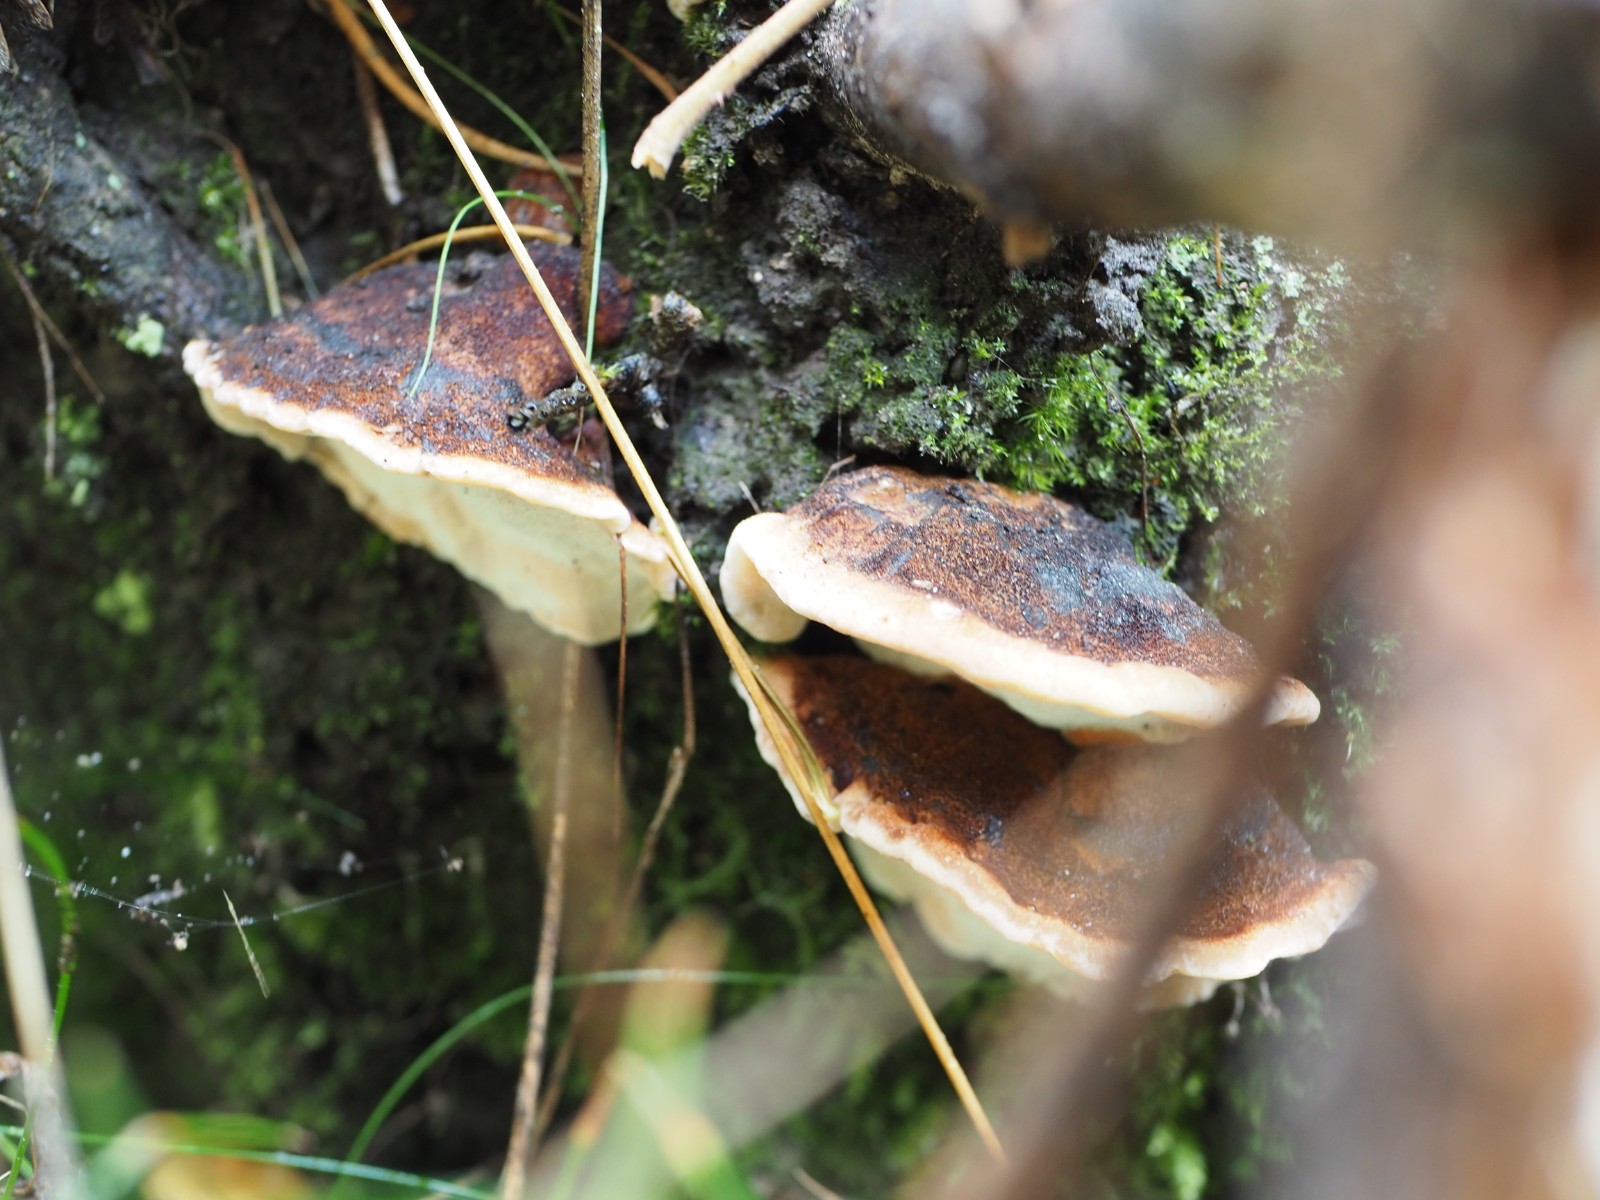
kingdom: Fungi
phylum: Basidiomycota
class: Agaricomycetes
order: Polyporales
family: Ischnodermataceae
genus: Ischnoderma
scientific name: Ischnoderma benzoinum
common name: gran-tjæreporesvamp
